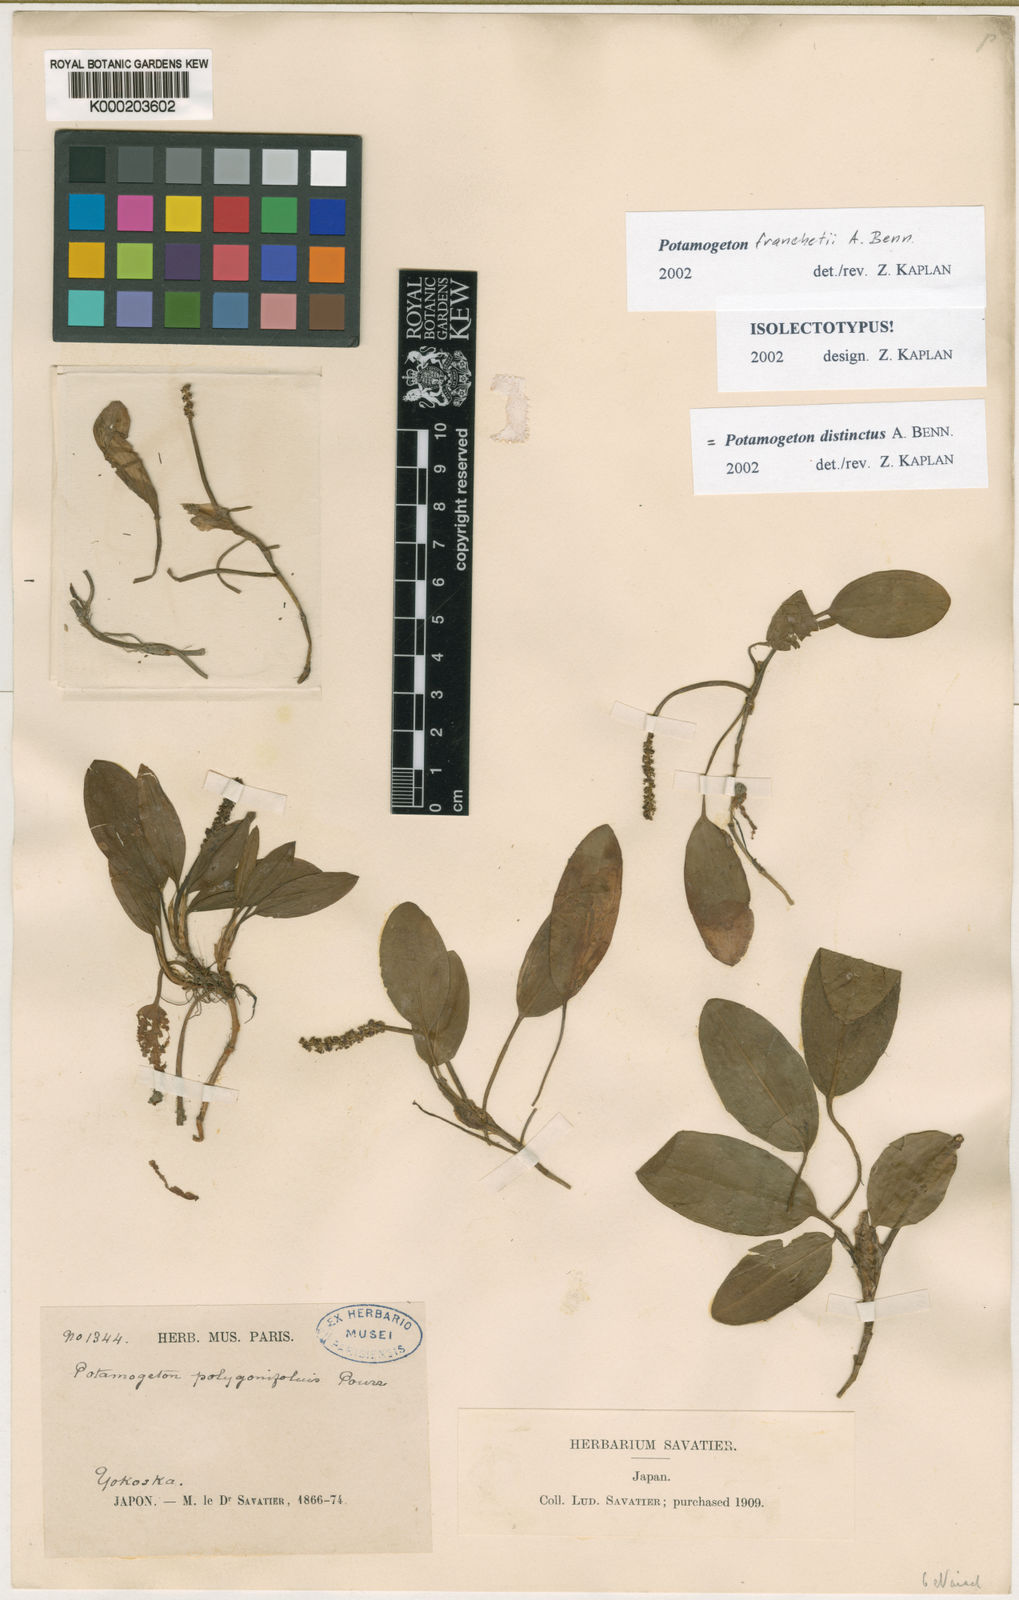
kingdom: Plantae
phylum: Tracheophyta
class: Liliopsida
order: Alismatales
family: Potamogetonaceae
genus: Potamogeton
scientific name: Potamogeton distinctus
